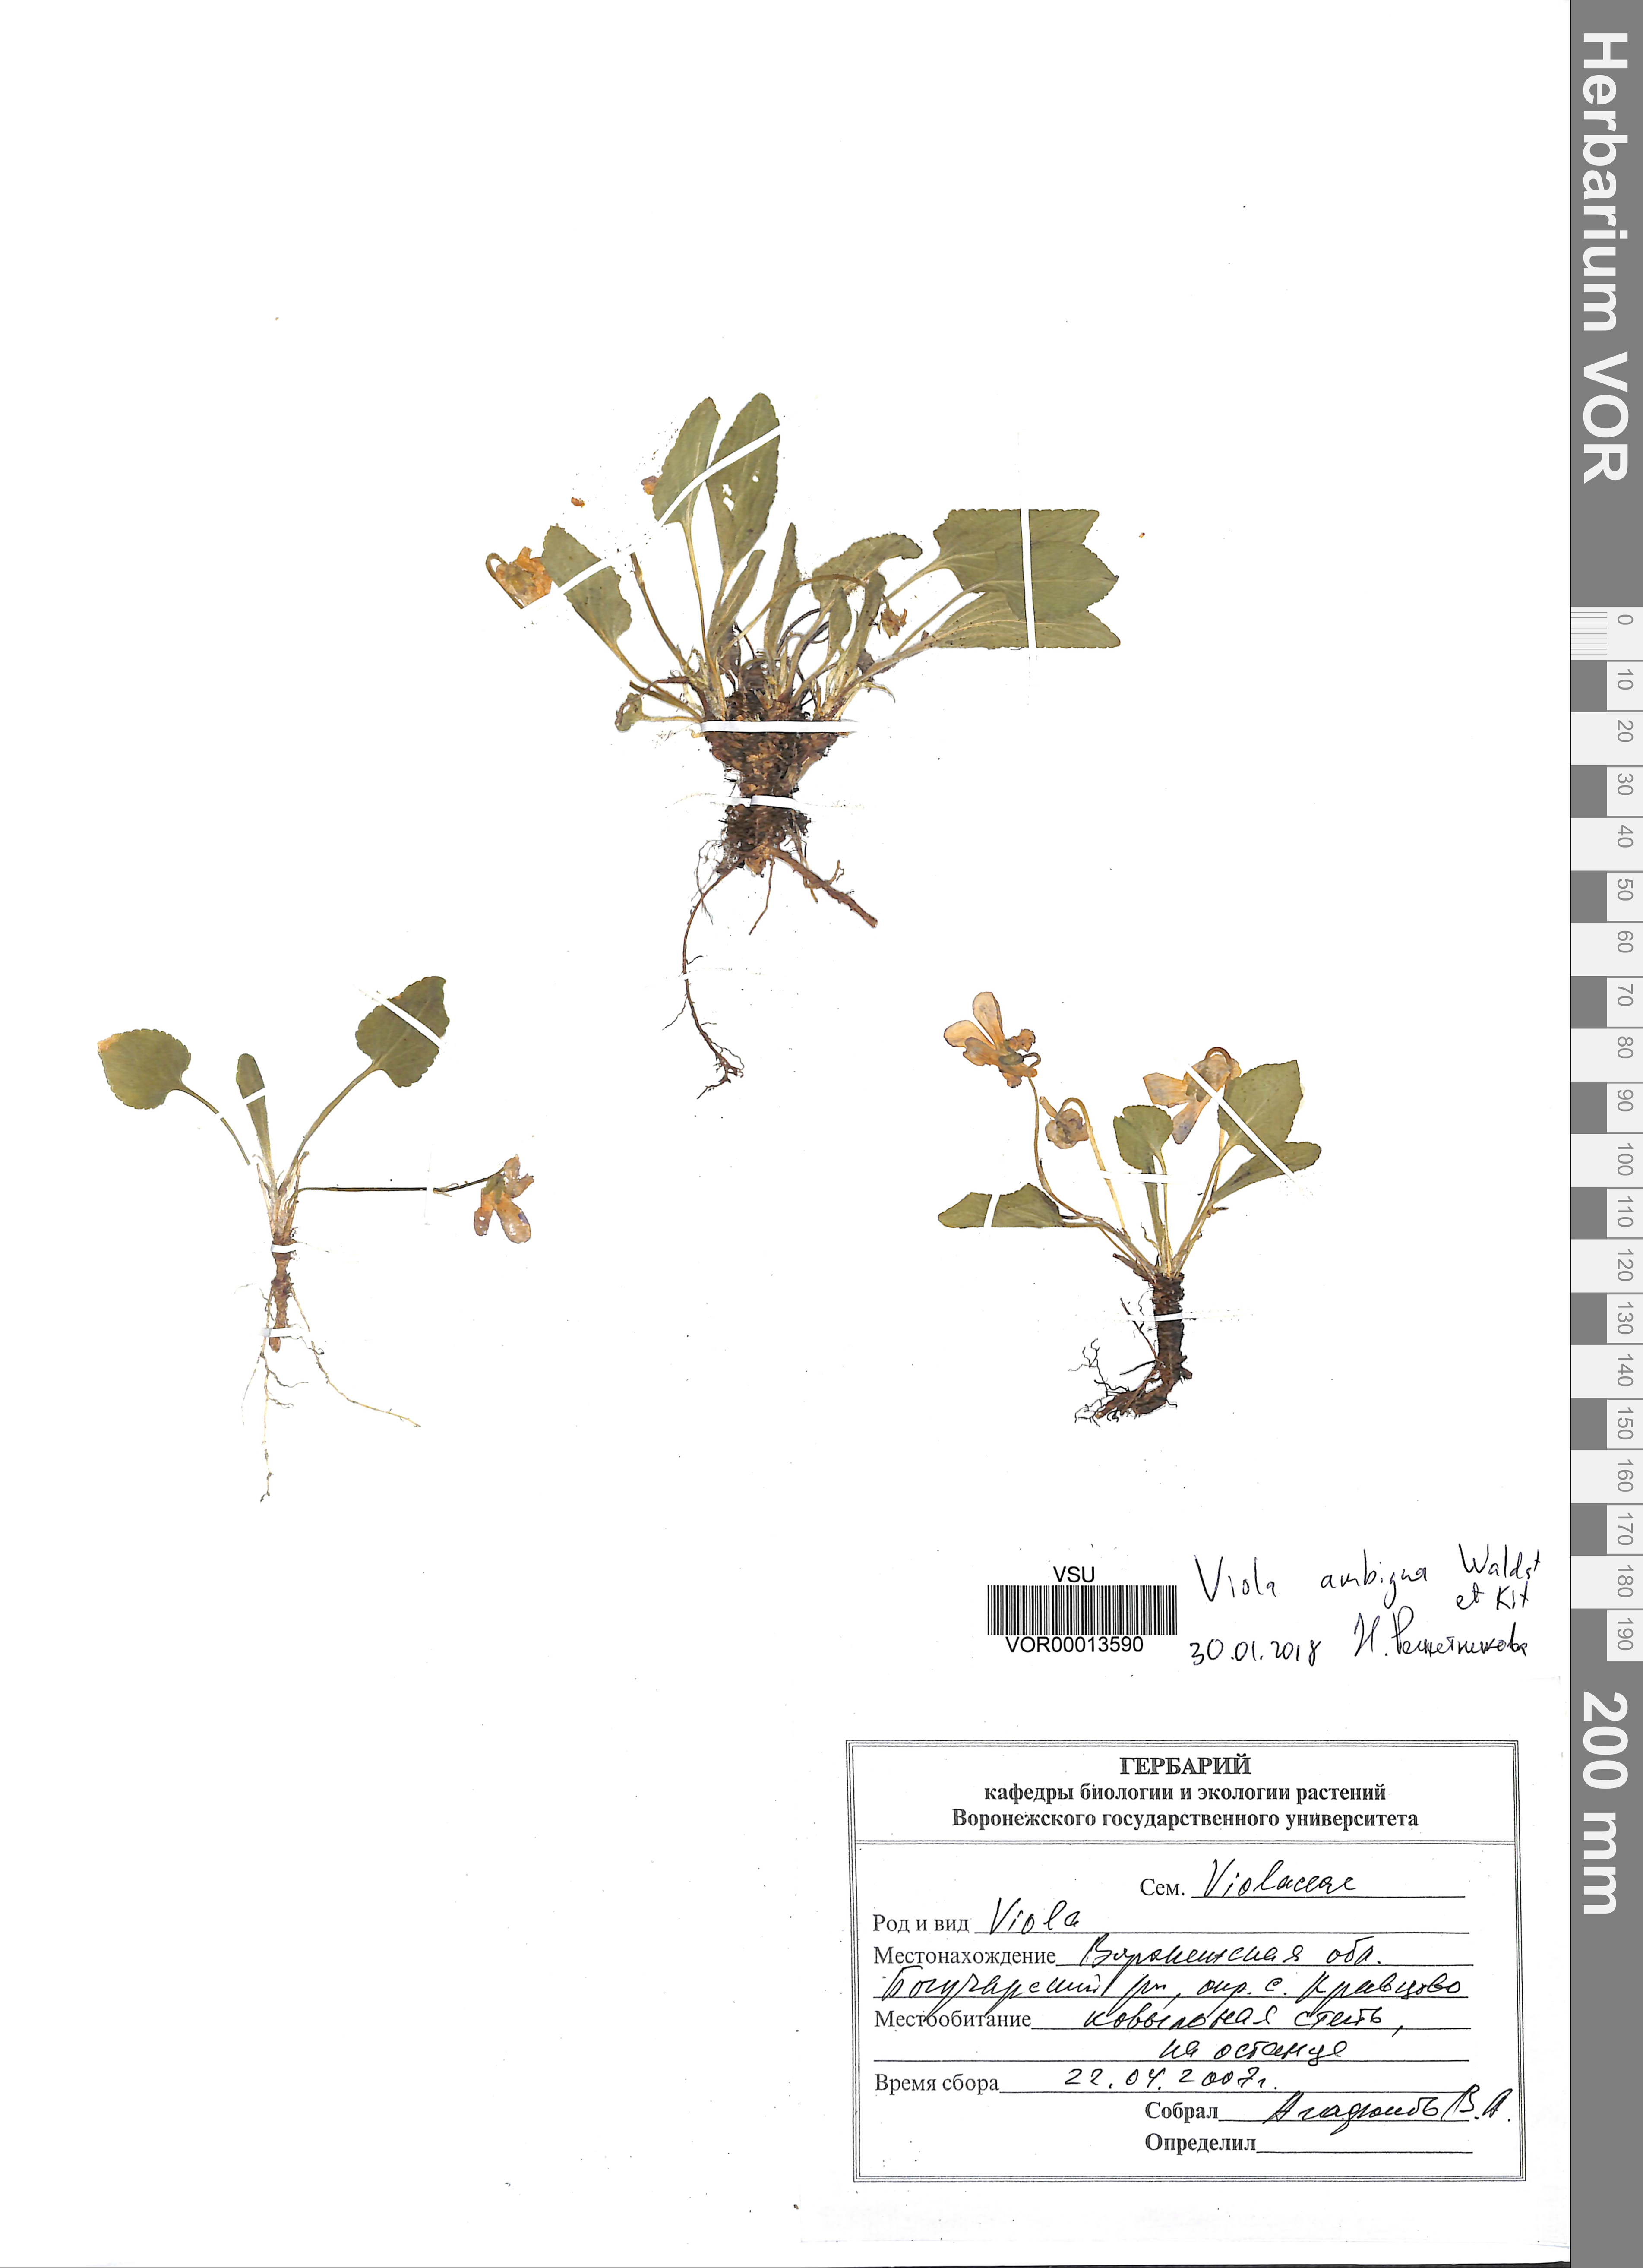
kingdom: Plantae
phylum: Tracheophyta
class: Magnoliopsida
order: Malpighiales
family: Violaceae
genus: Viola
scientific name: Viola ambigua
